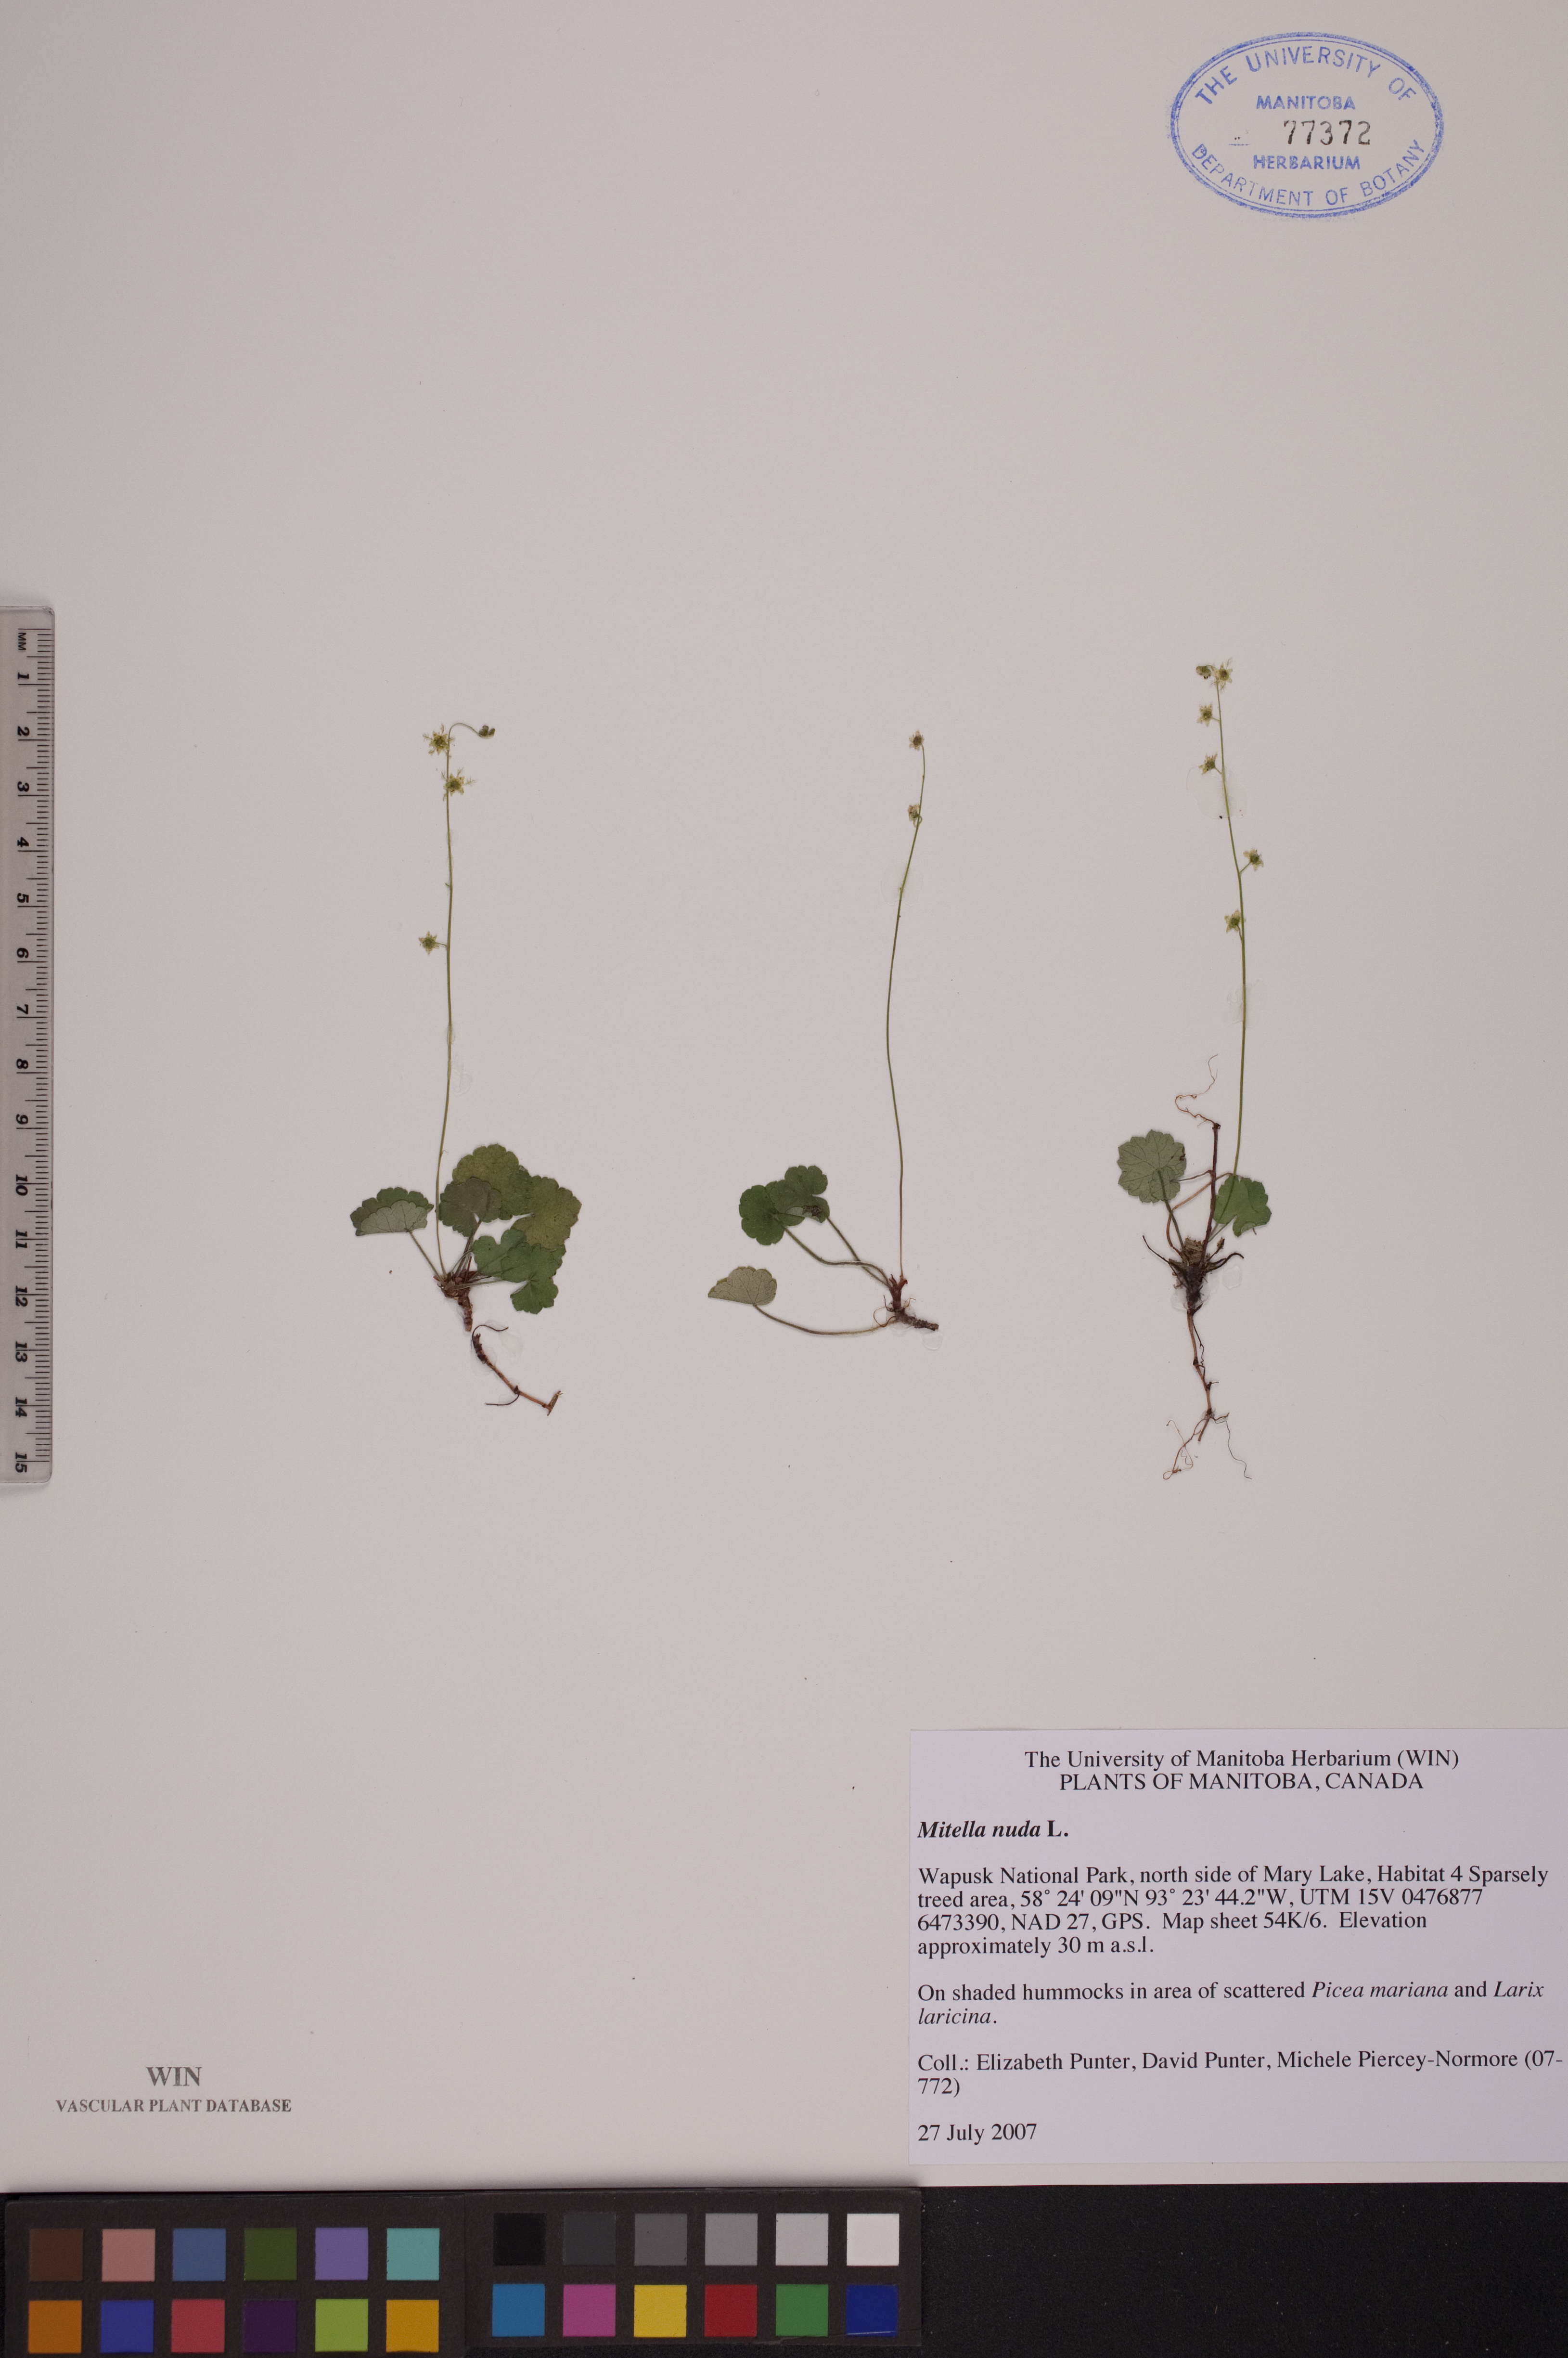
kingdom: Plantae
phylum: Tracheophyta
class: Magnoliopsida
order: Saxifragales
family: Saxifragaceae
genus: Mitella
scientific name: Mitella nuda
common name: Bare-stemmed bishop's-cap
